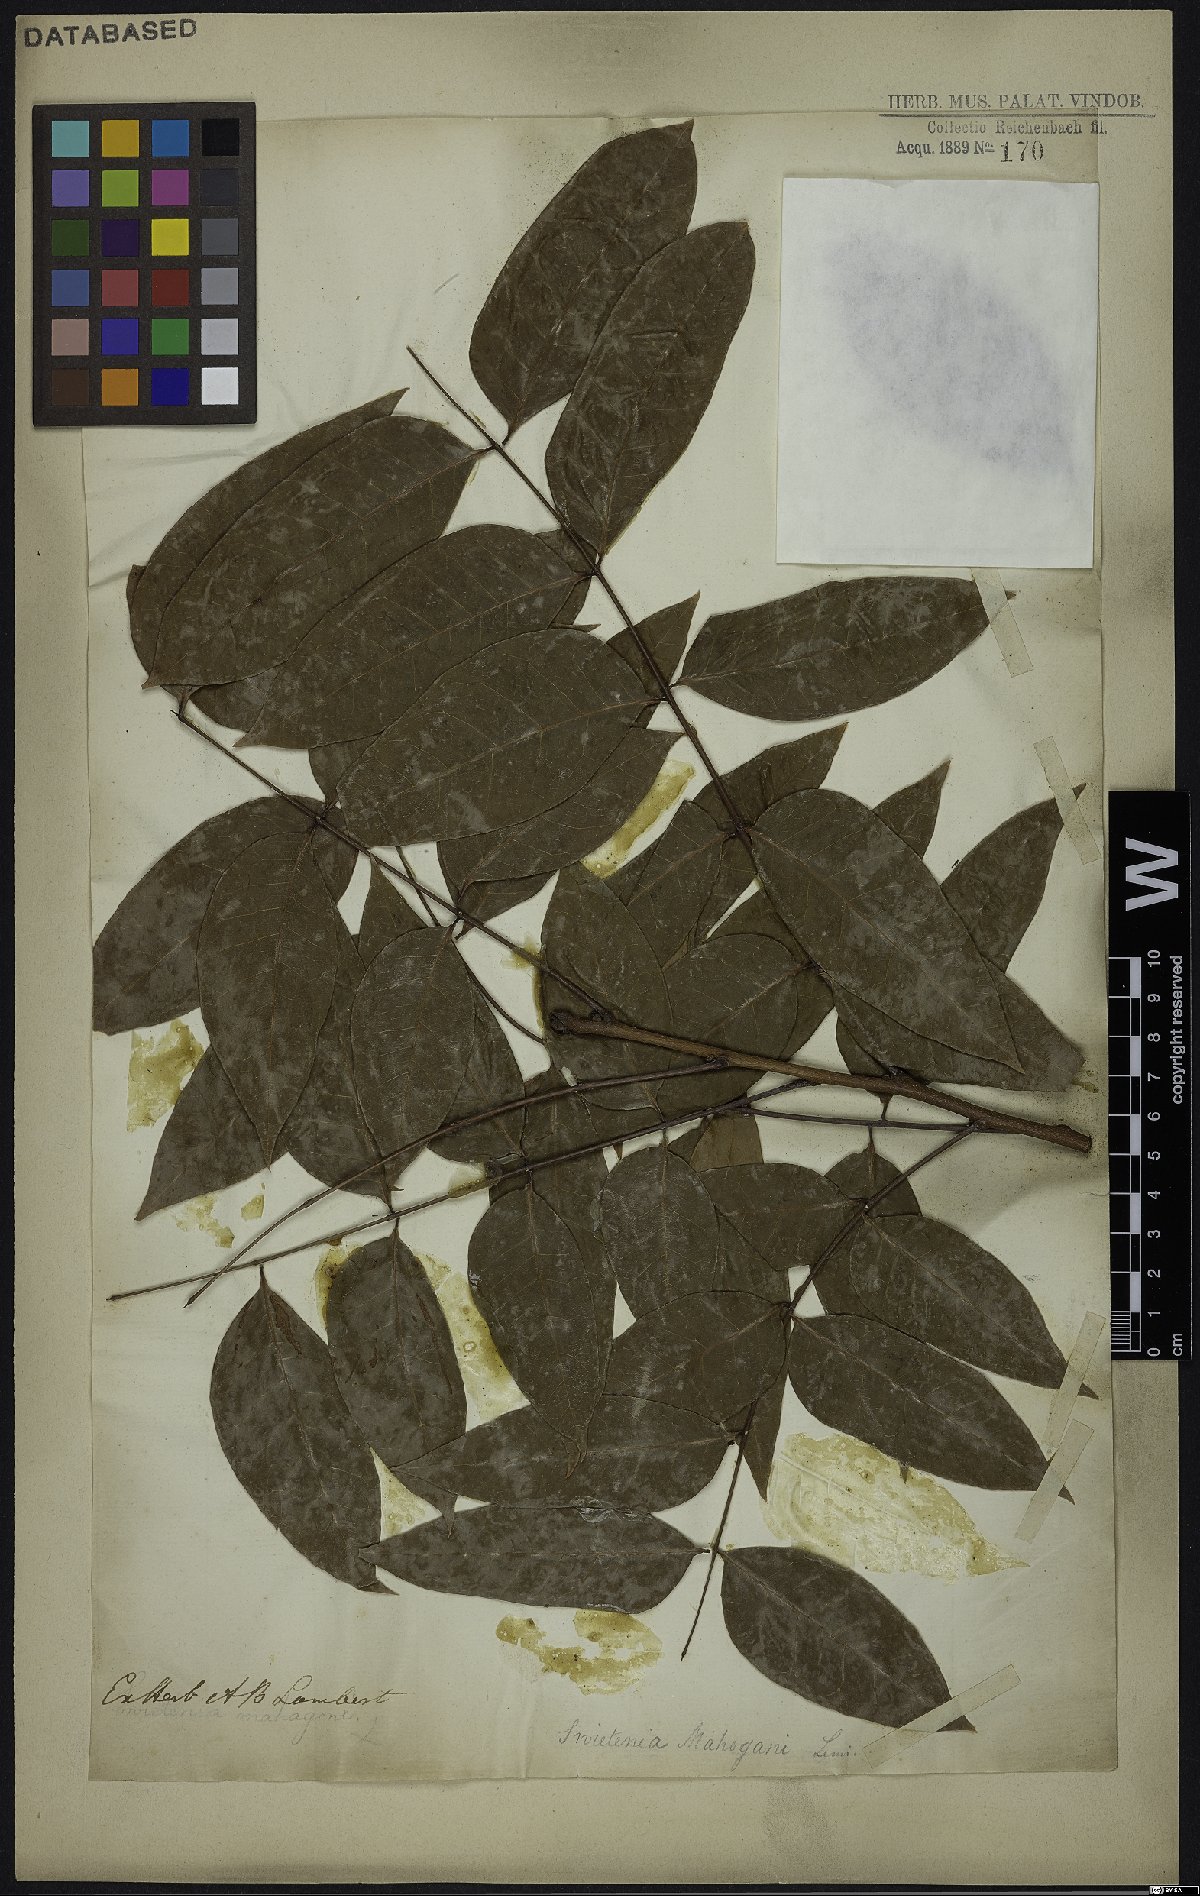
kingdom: Plantae
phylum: Tracheophyta
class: Magnoliopsida
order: Sapindales
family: Meliaceae
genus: Swietenia
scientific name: Swietenia mahagoni
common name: West indian mahogany
